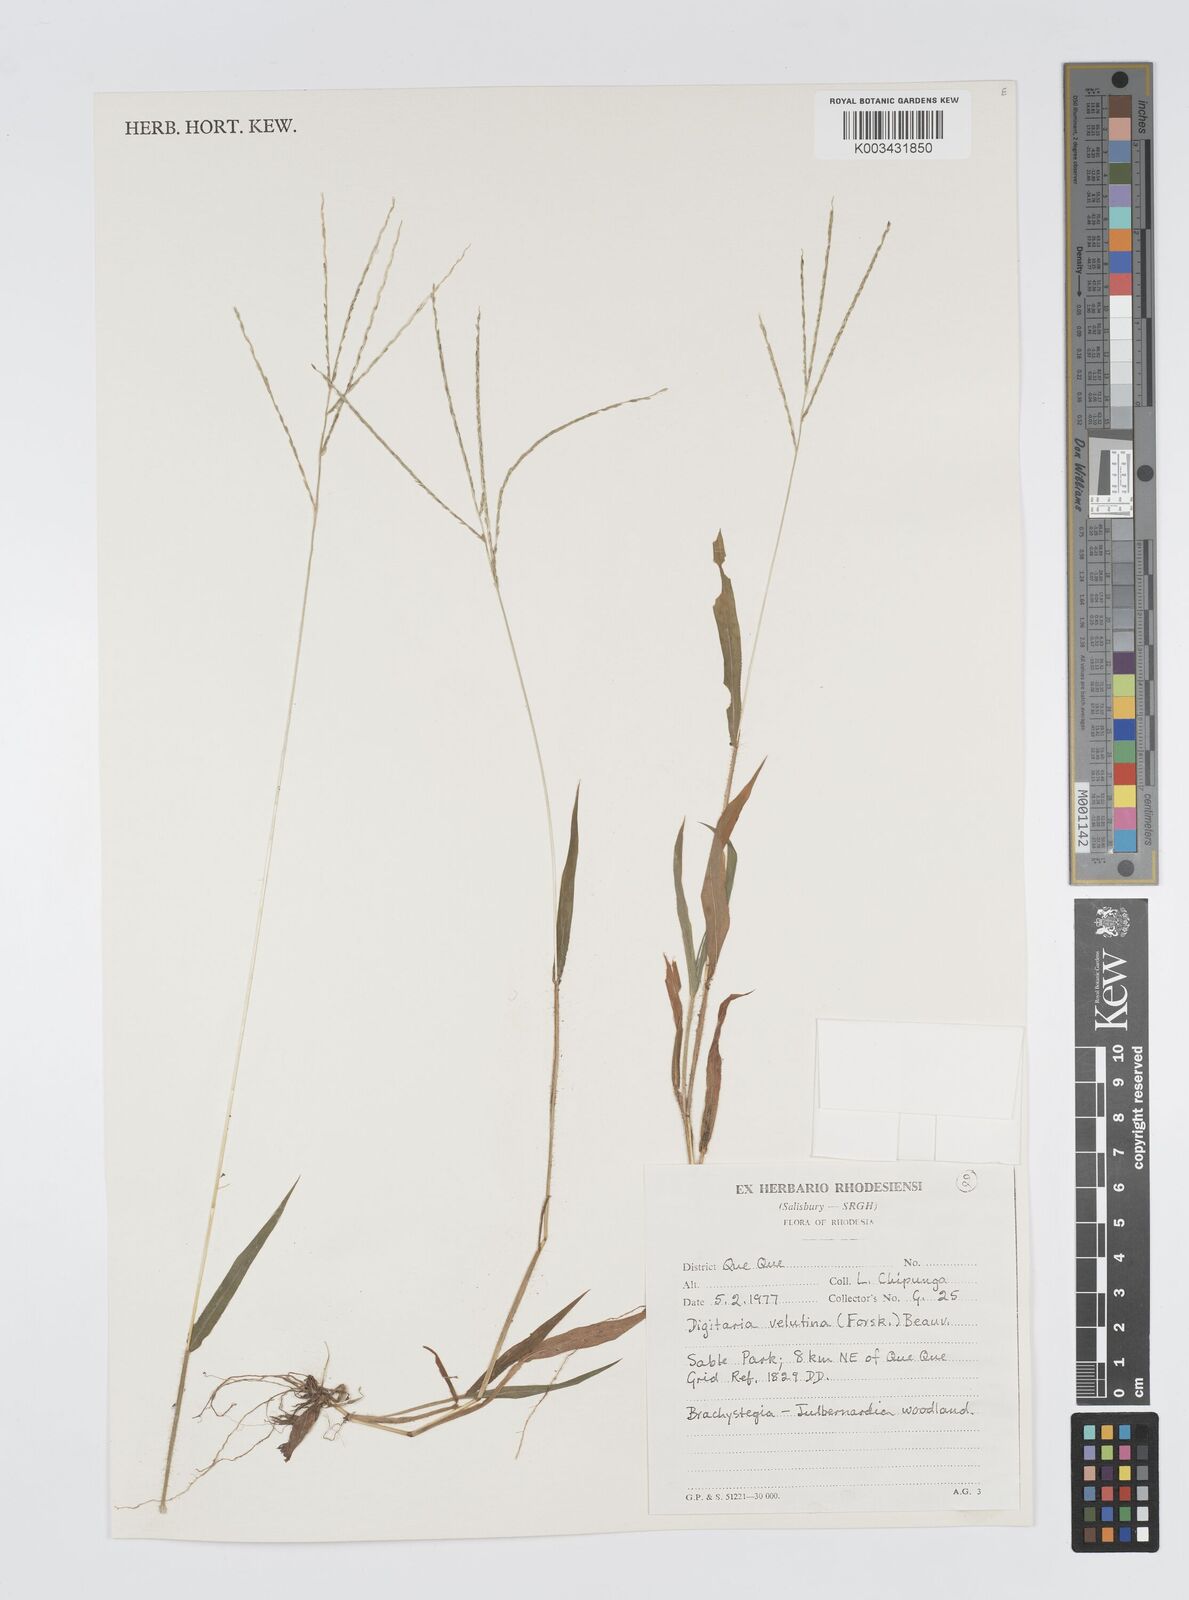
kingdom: Plantae
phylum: Tracheophyta
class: Liliopsida
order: Poales
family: Poaceae
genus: Digitaria
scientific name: Digitaria velutina
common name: Long-plume finger grass
